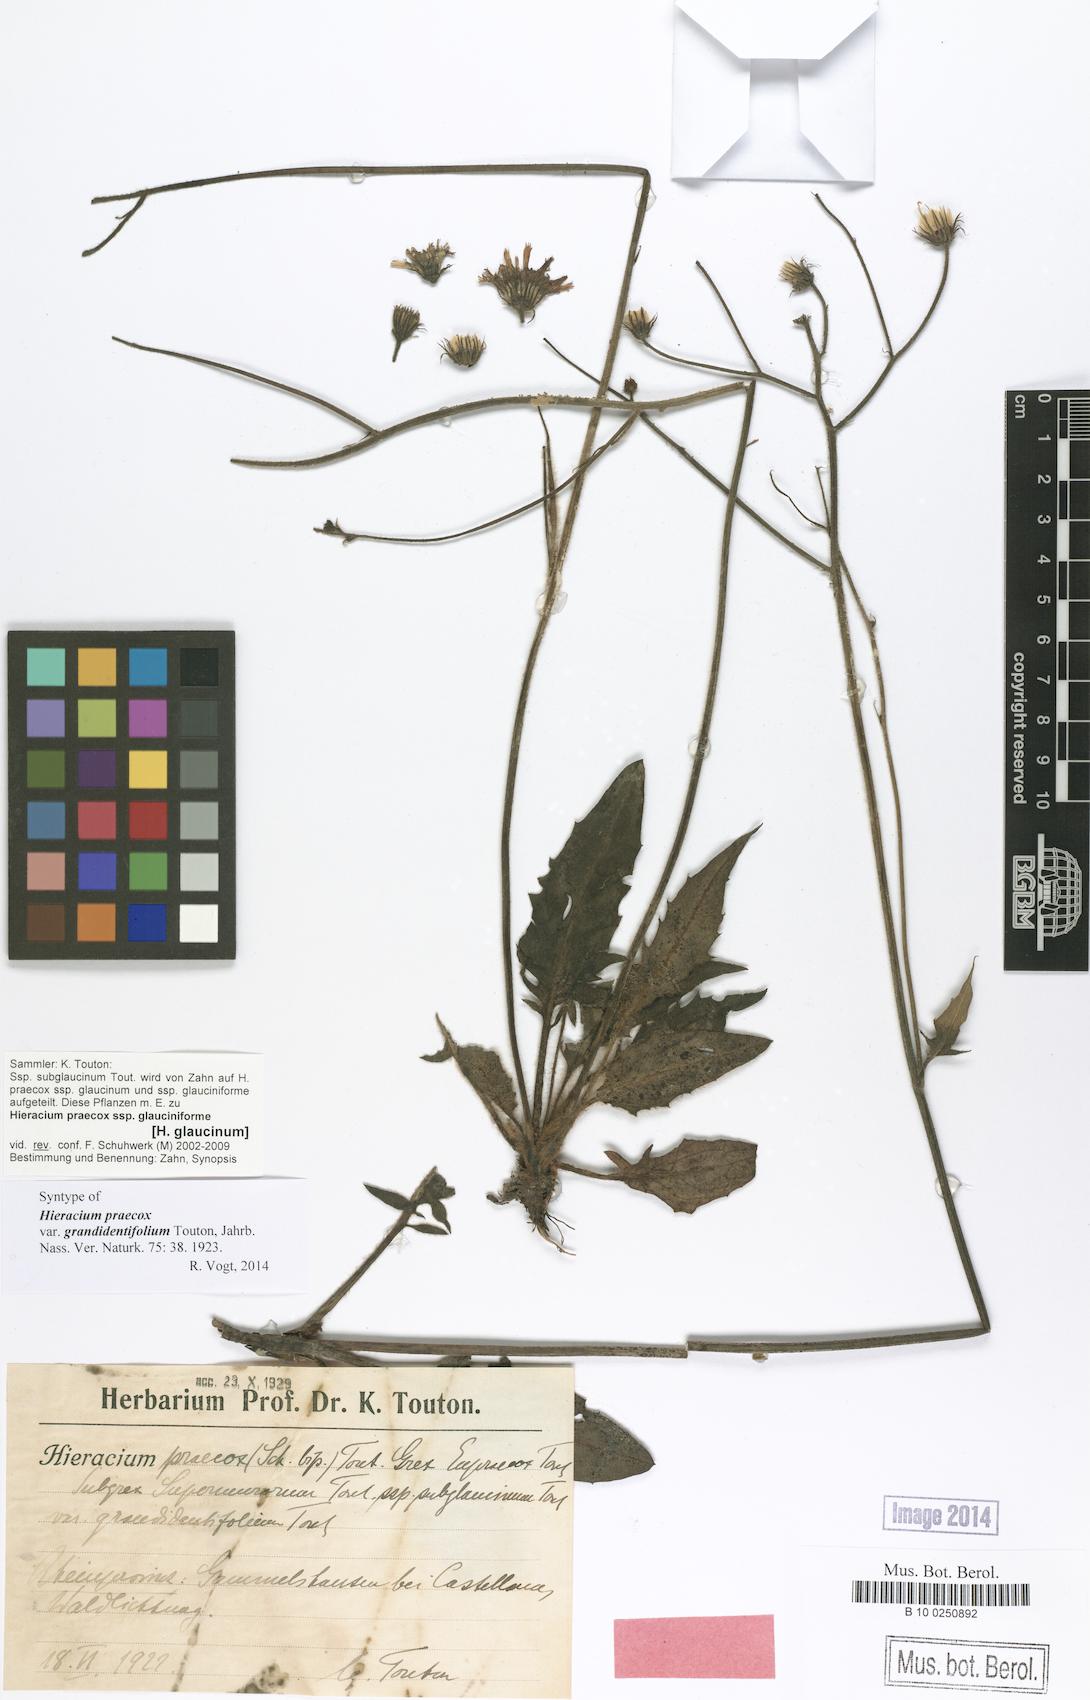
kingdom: Plantae
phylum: Tracheophyta
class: Magnoliopsida
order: Asterales
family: Asteraceae
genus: Hieracium
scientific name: Hieracium praecox
